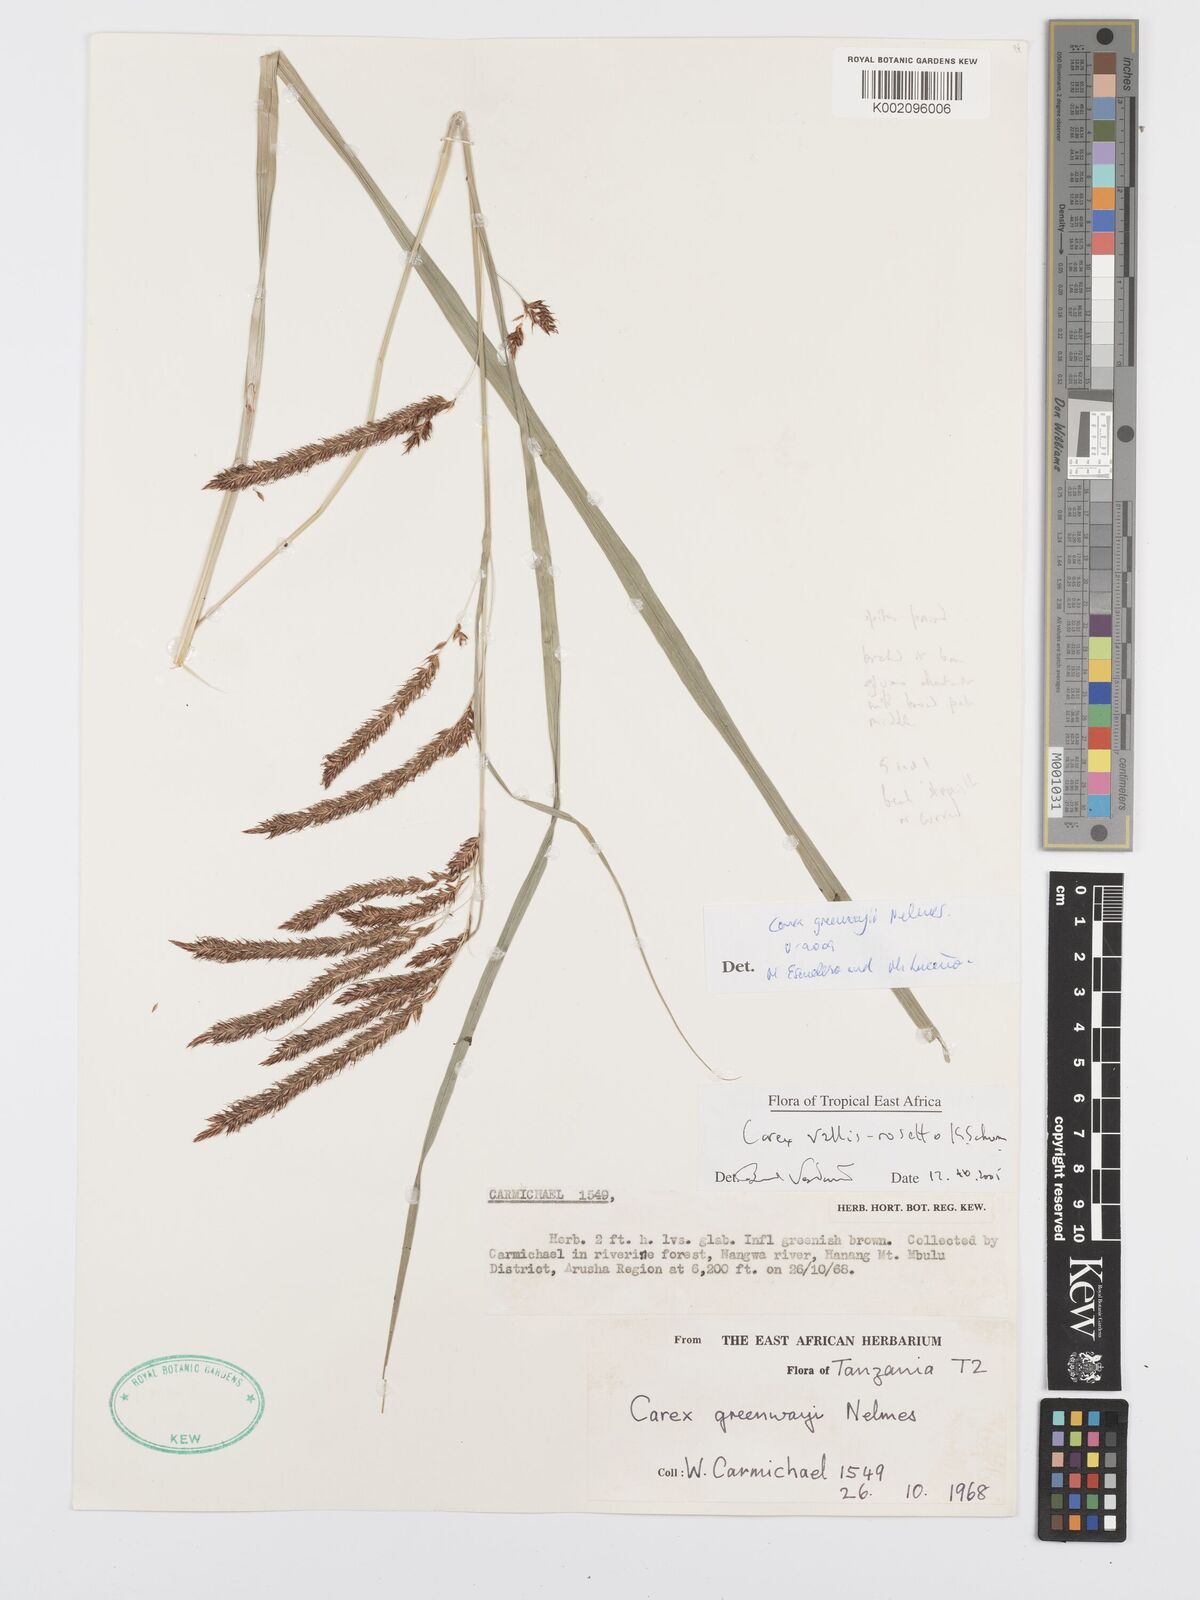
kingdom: Plantae
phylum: Tracheophyta
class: Liliopsida
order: Poales
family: Cyperaceae
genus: Carex
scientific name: Carex greenwayi
